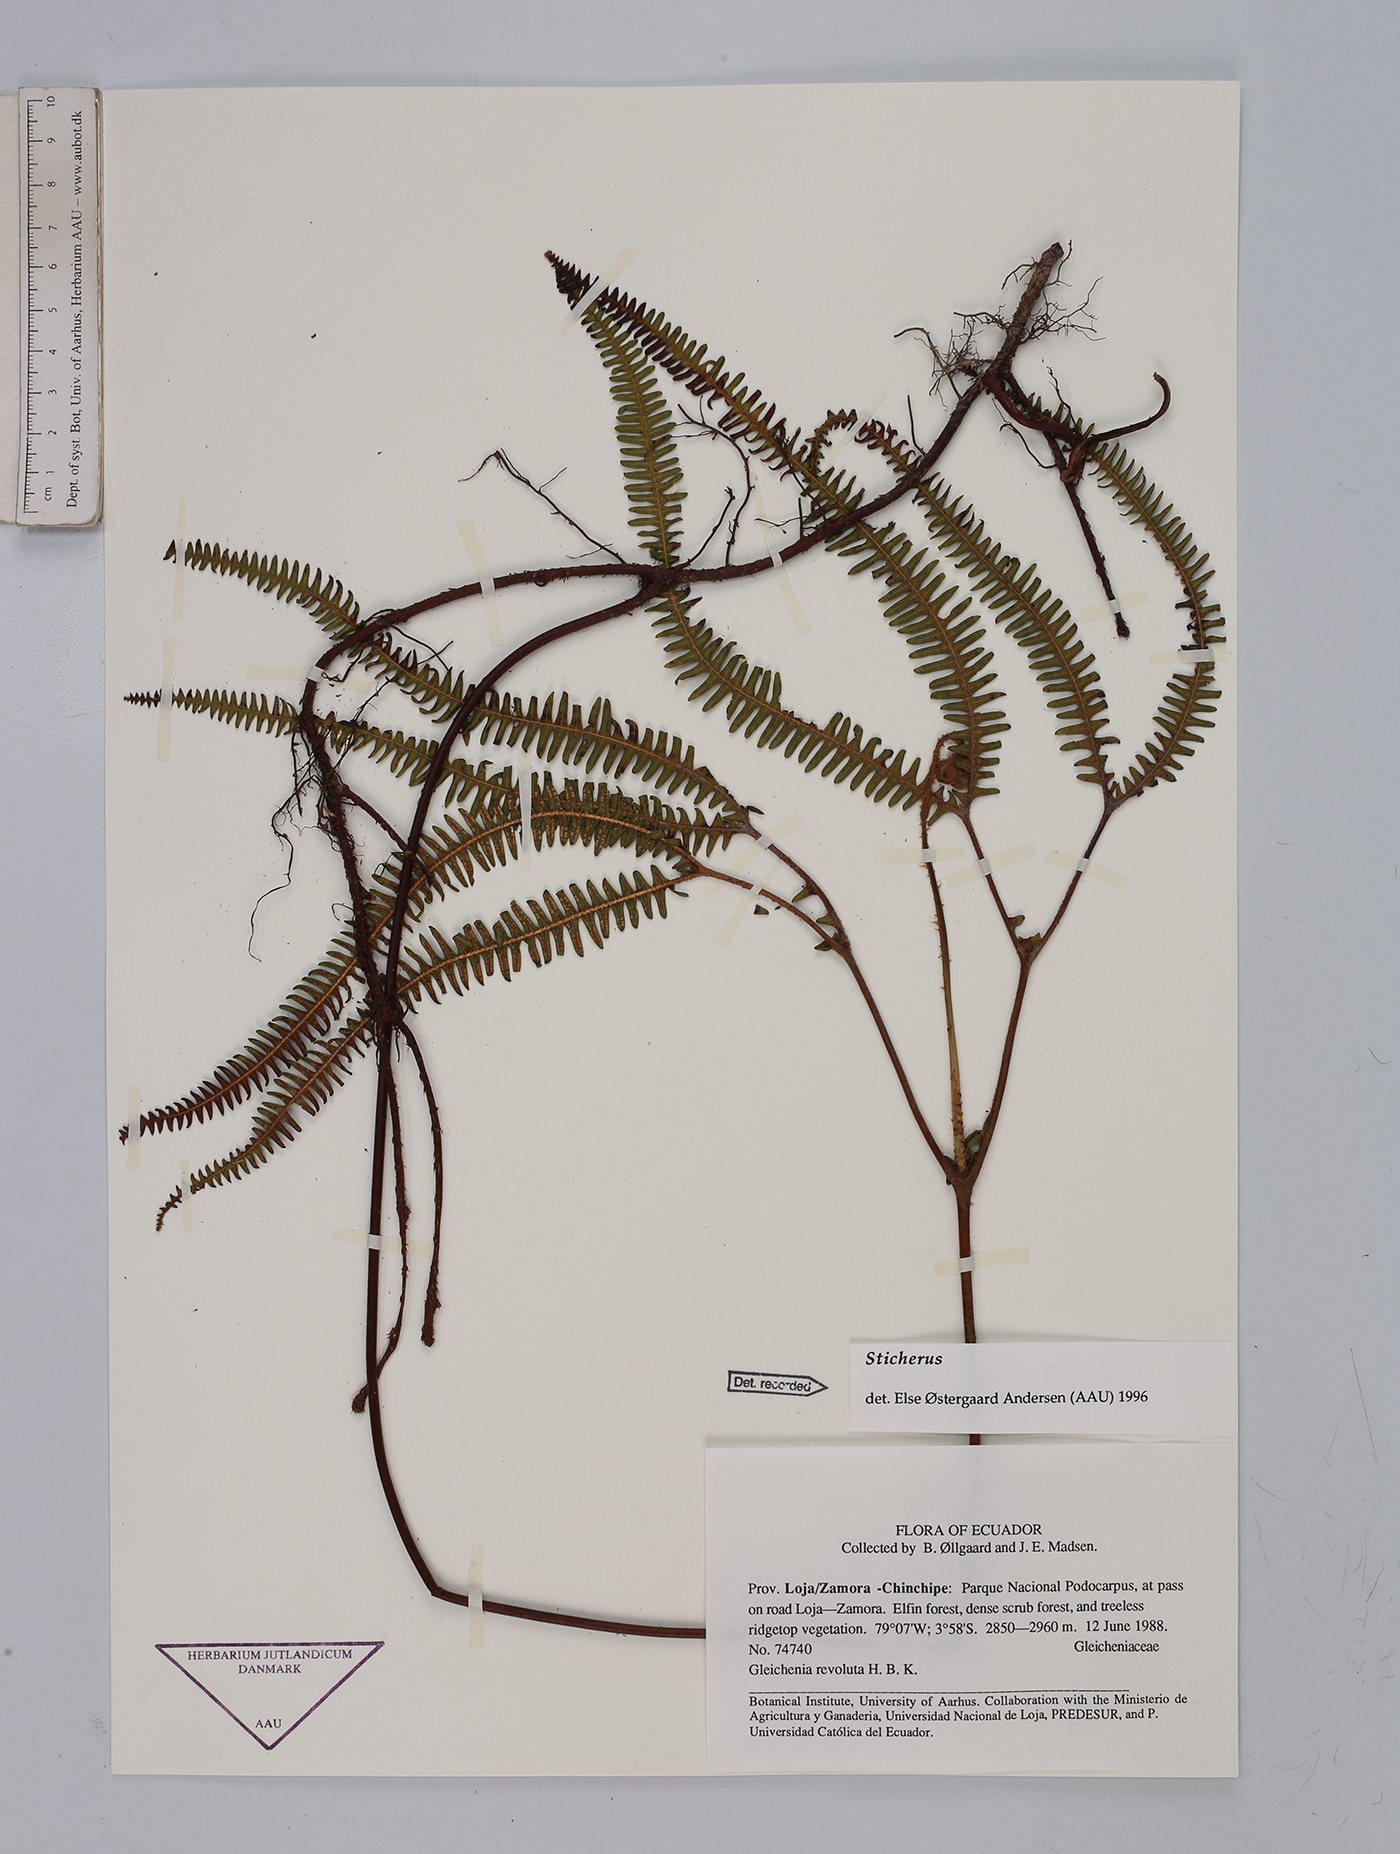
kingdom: Plantae
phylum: Tracheophyta
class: Polypodiopsida
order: Gleicheniales
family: Gleicheniaceae
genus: Sticherus
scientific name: Sticherus
